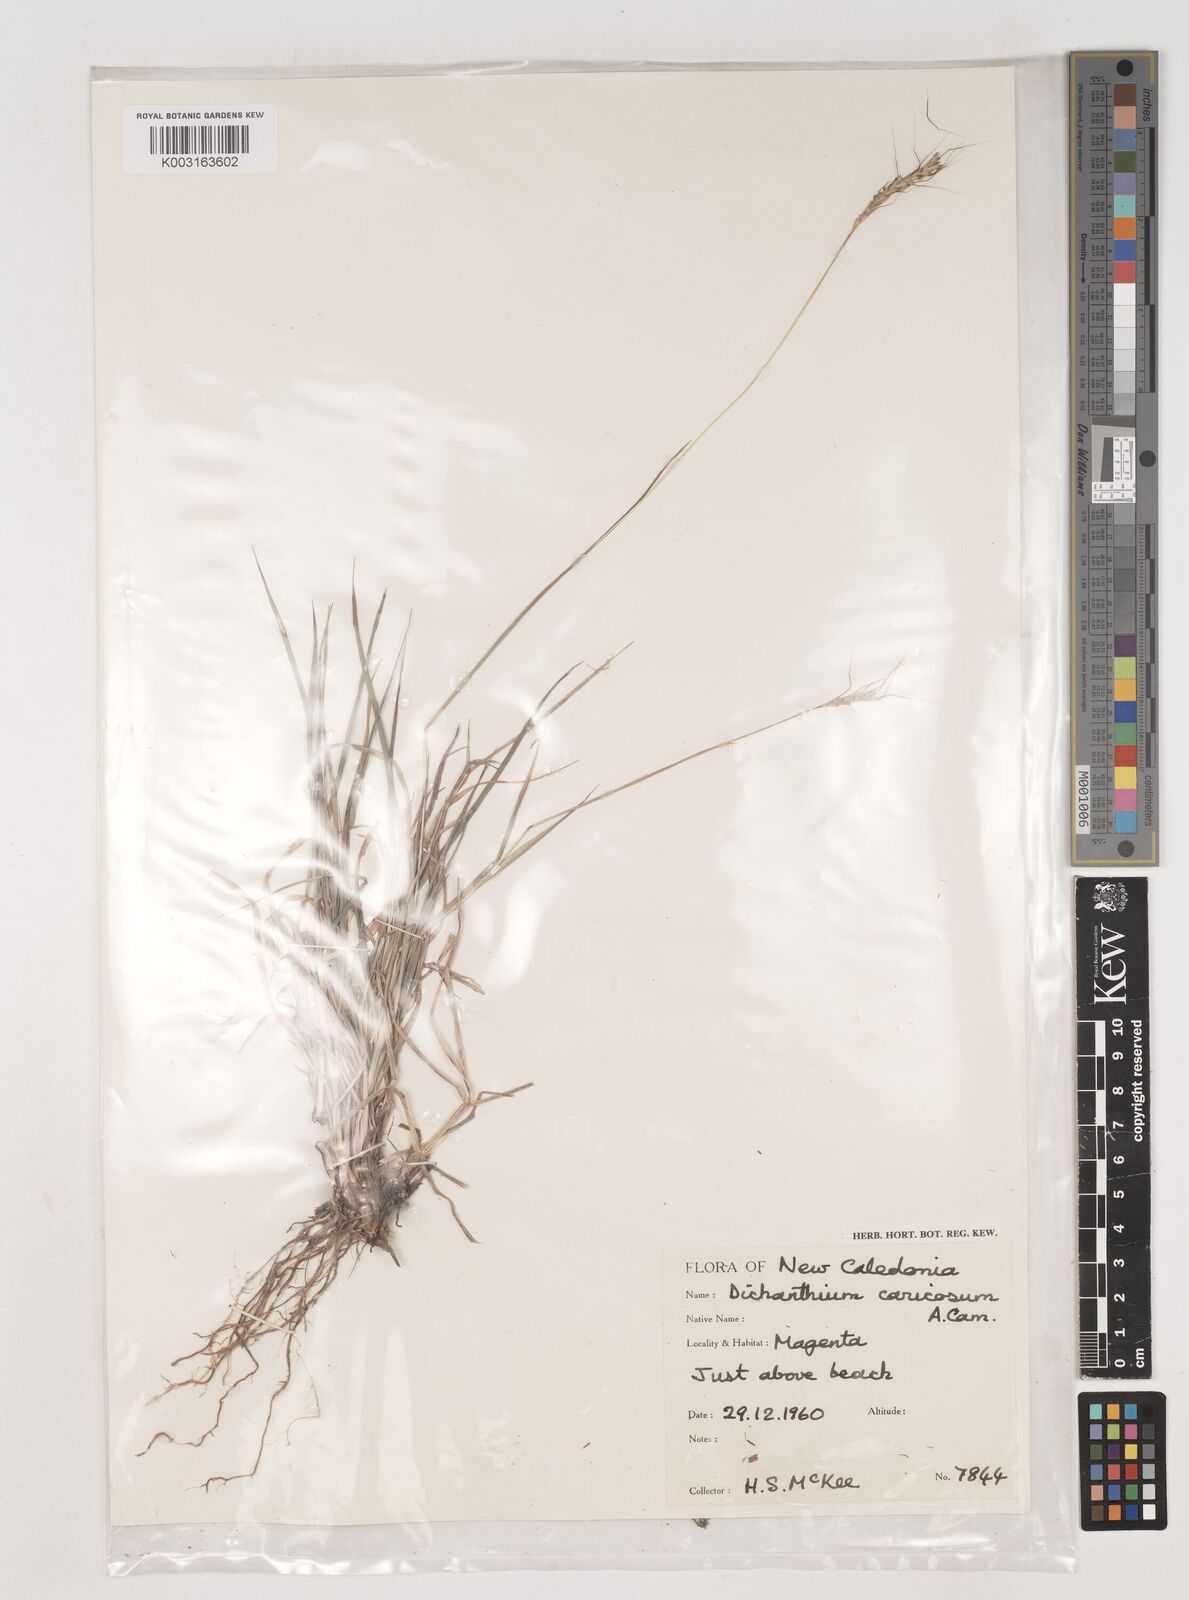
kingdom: Plantae
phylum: Tracheophyta
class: Liliopsida
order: Poales
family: Poaceae
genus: Dichanthium
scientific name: Dichanthium aristatum
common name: Angleton bluestem
